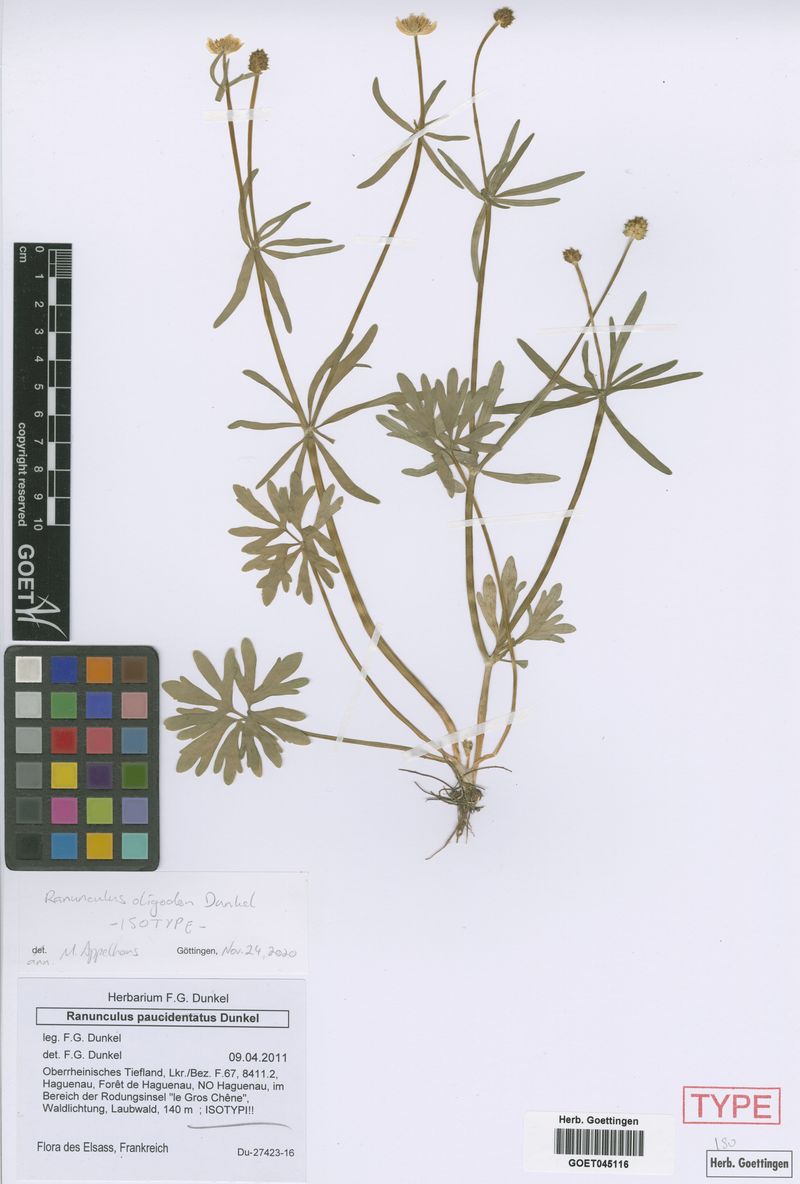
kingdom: Plantae
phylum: Tracheophyta
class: Magnoliopsida
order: Ranunculales
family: Ranunculaceae
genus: Ranunculus
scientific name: Ranunculus oligodon
